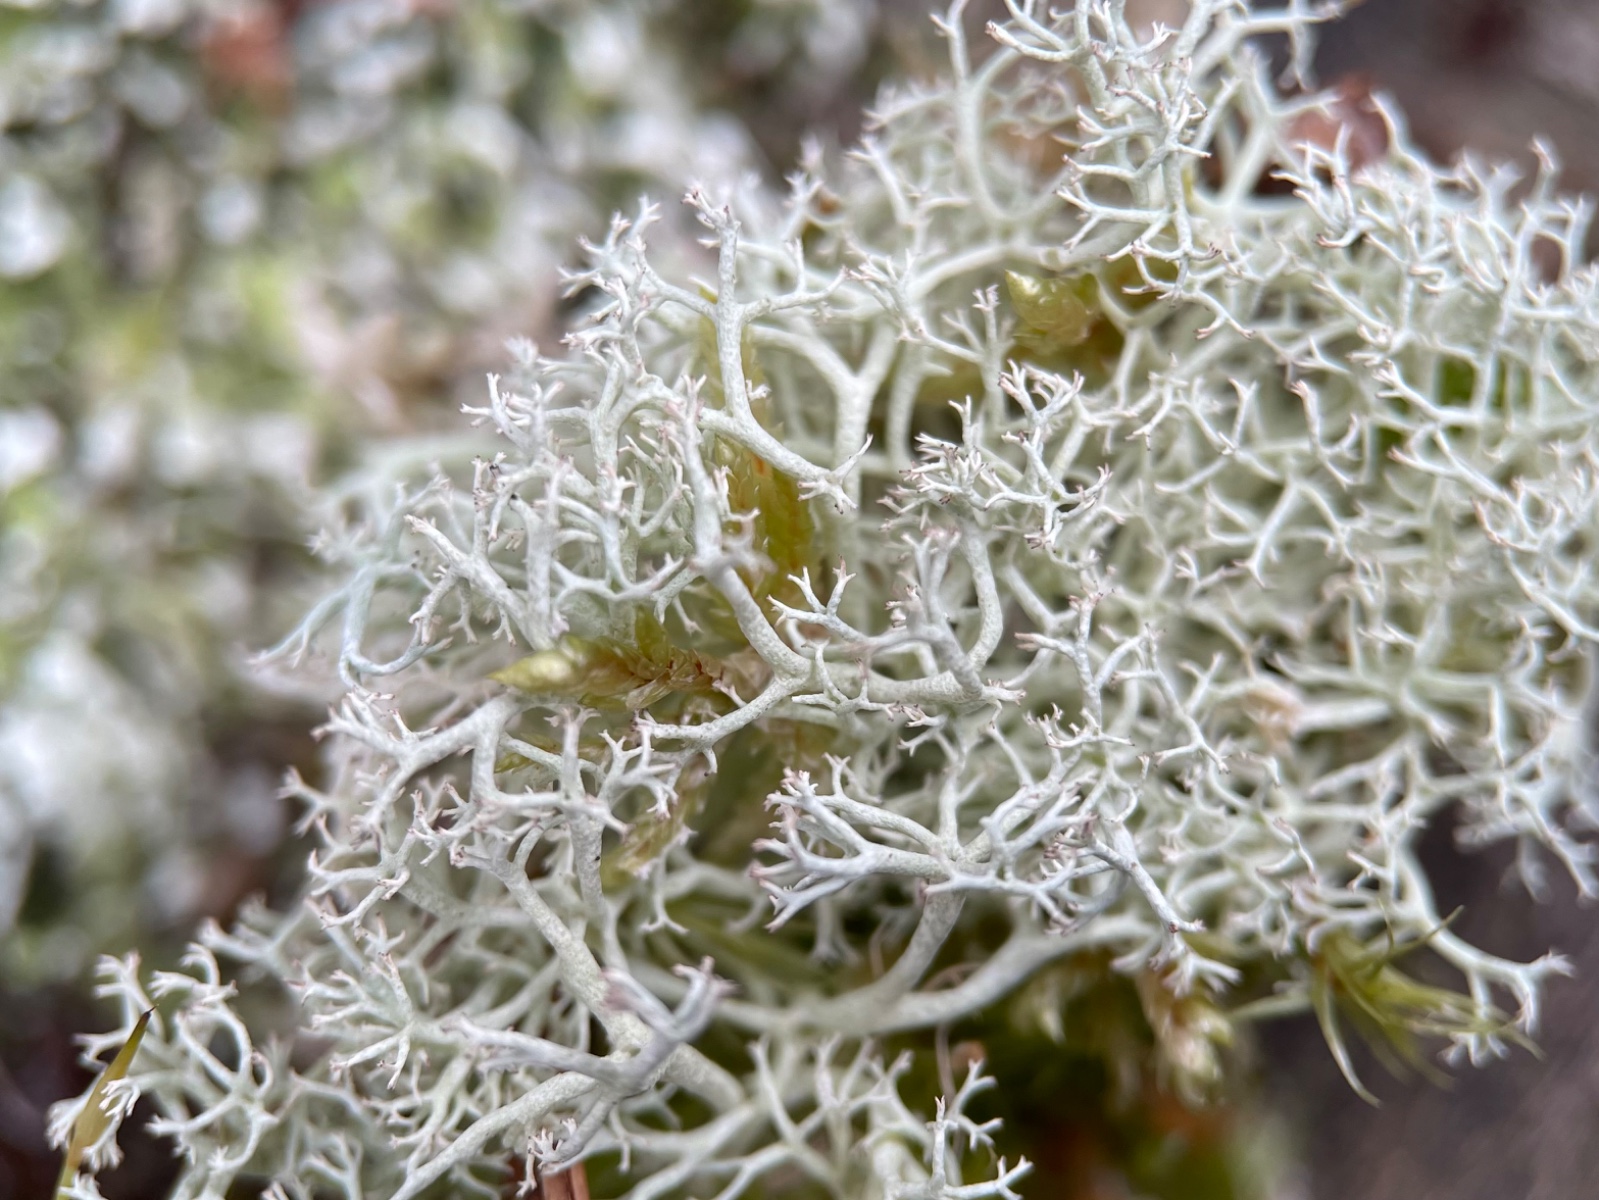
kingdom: Fungi
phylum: Ascomycota
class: Lecanoromycetes
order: Lecanorales
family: Cladoniaceae
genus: Cladonia
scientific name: Cladonia portentosa
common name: hede-rensdyrlav
